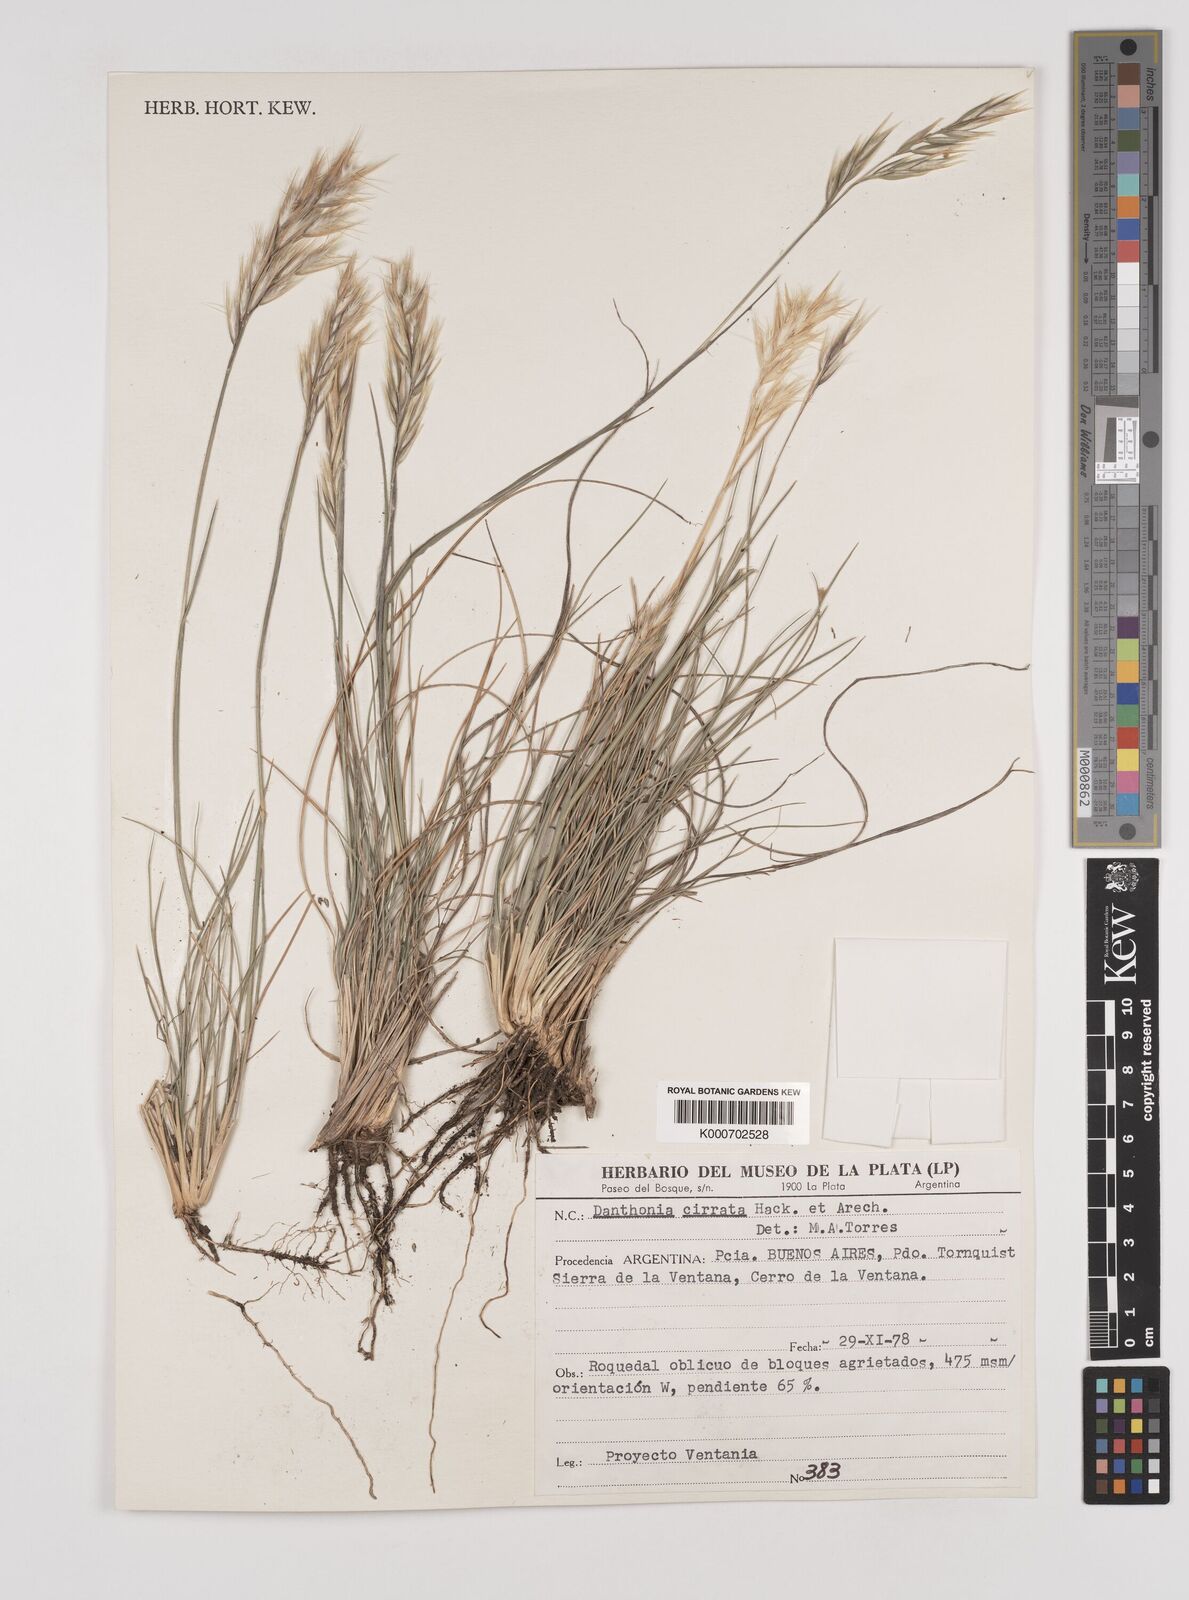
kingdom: Plantae
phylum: Tracheophyta
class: Liliopsida
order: Poales
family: Poaceae
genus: Danthonia
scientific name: Danthonia cirrata
